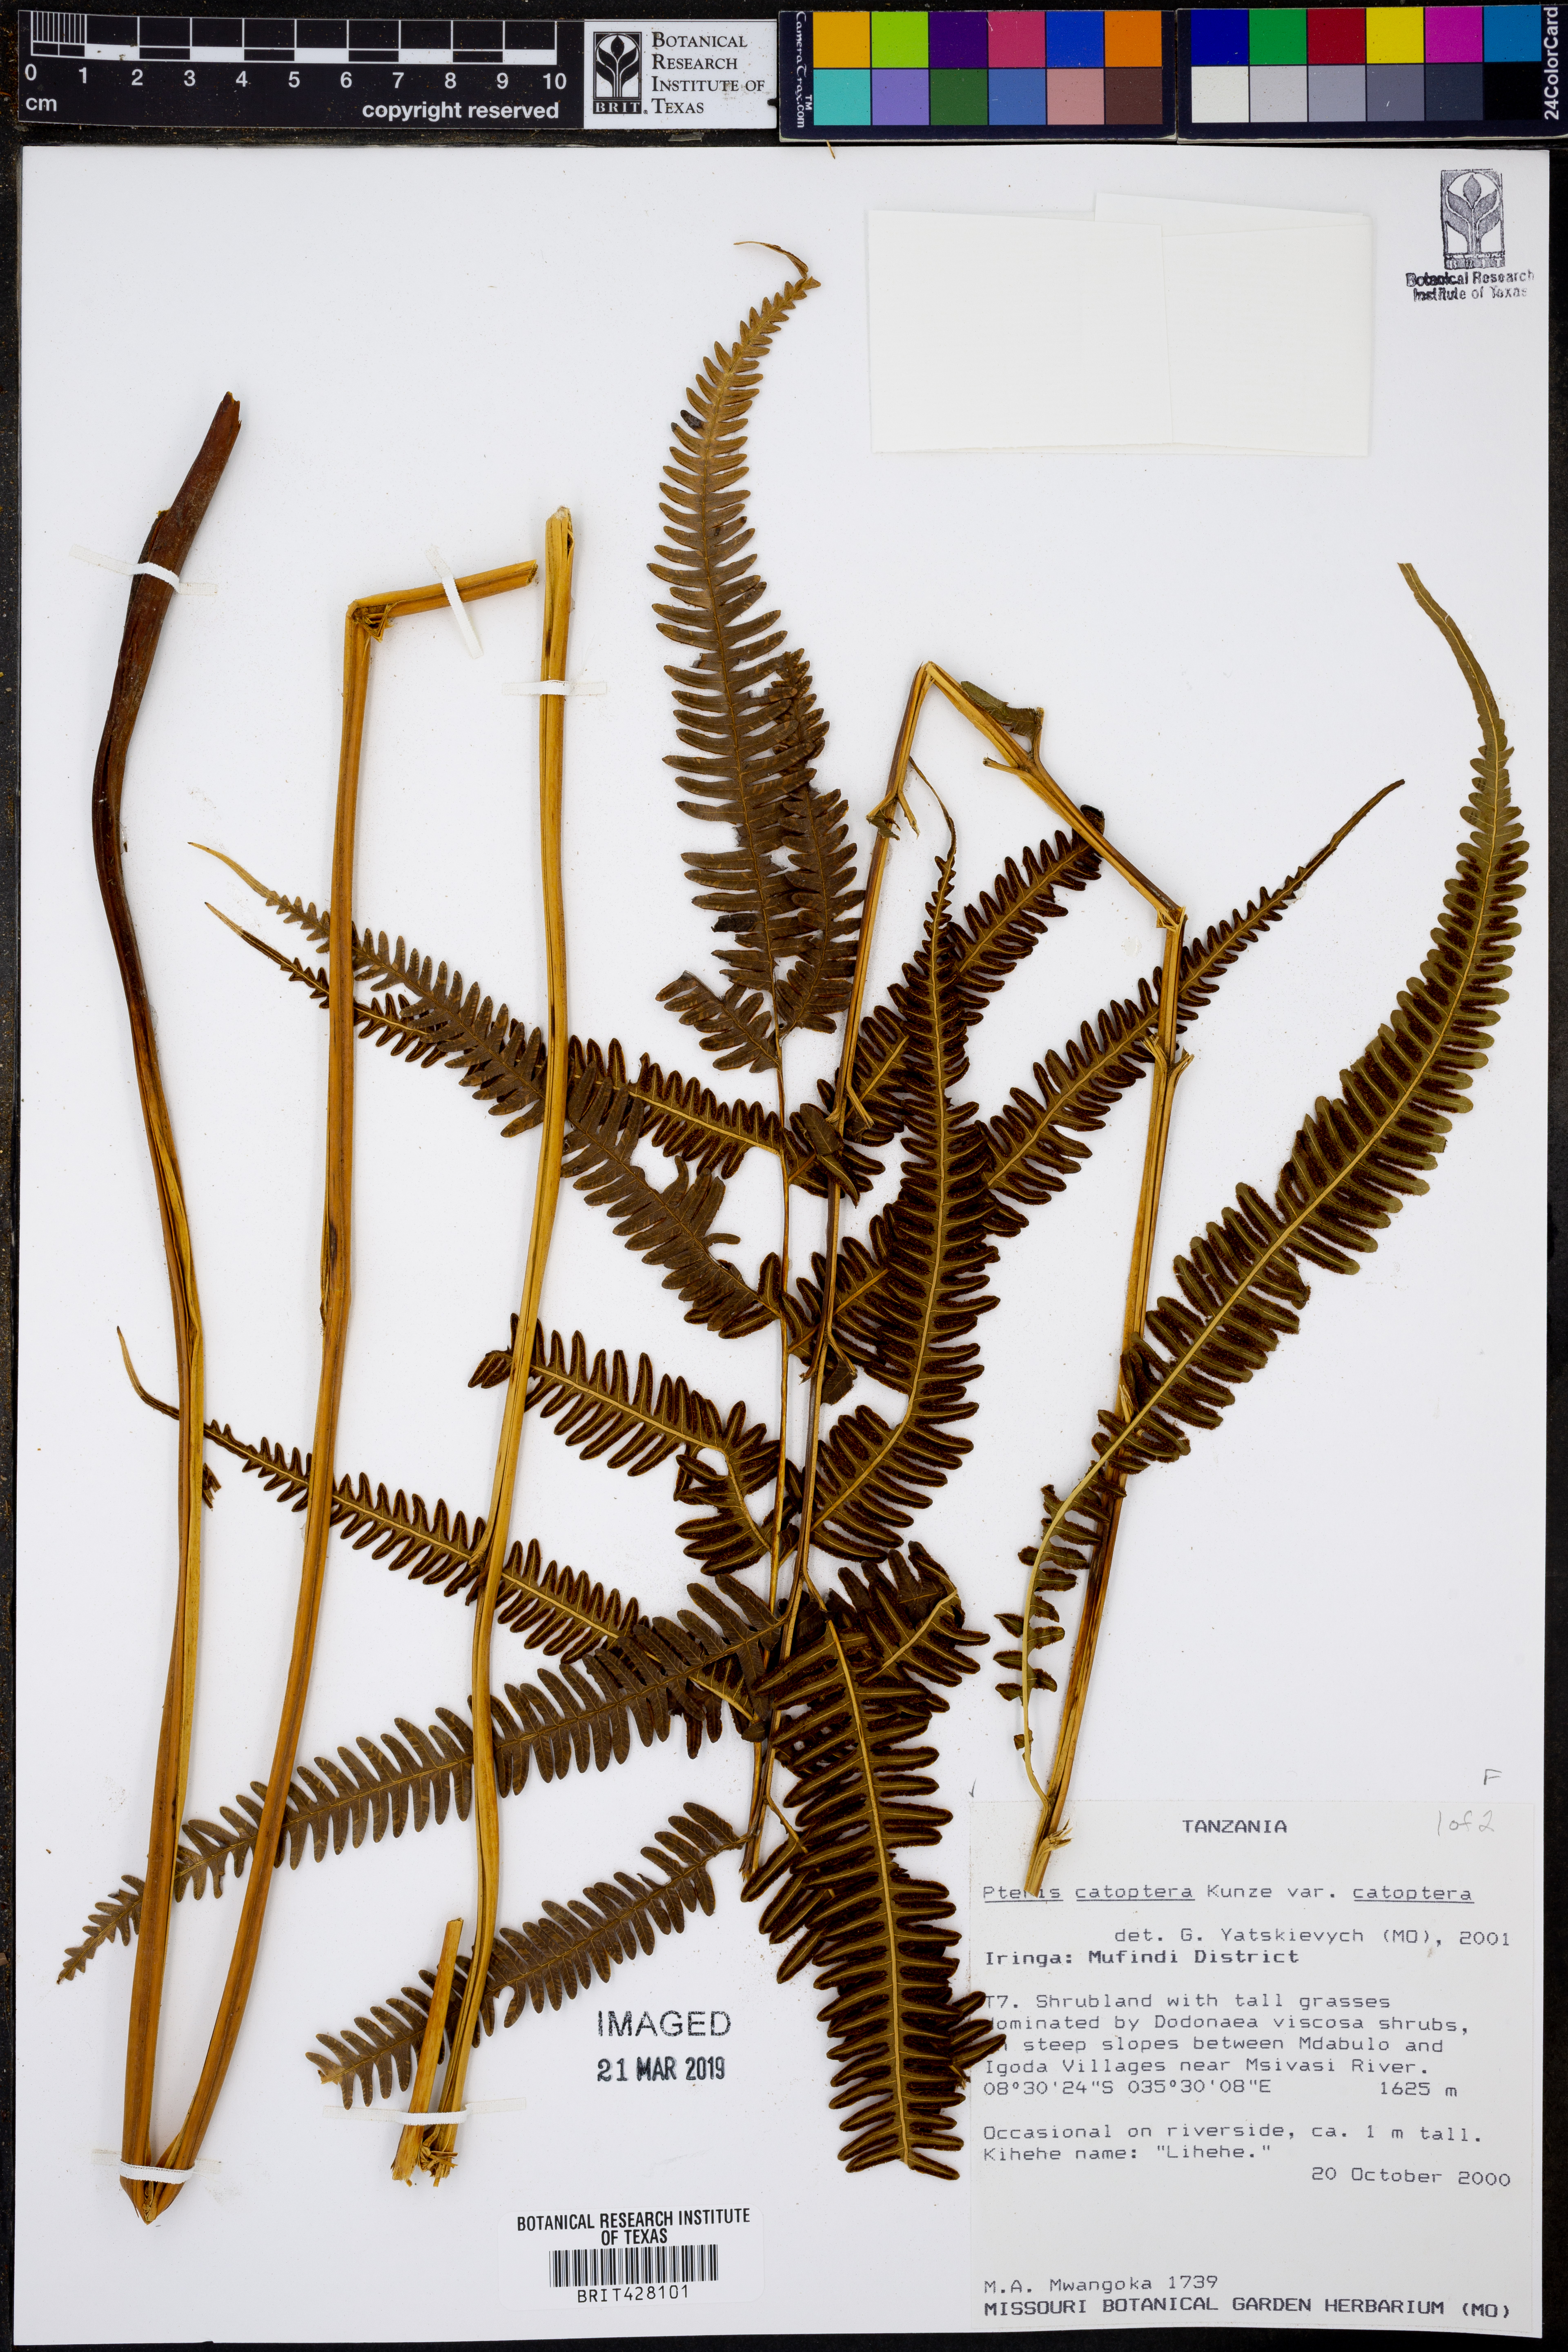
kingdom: Plantae
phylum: Tracheophyta
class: Polypodiopsida
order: Polypodiales
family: Pteridaceae
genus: Pteris
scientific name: Pteris catoptera
